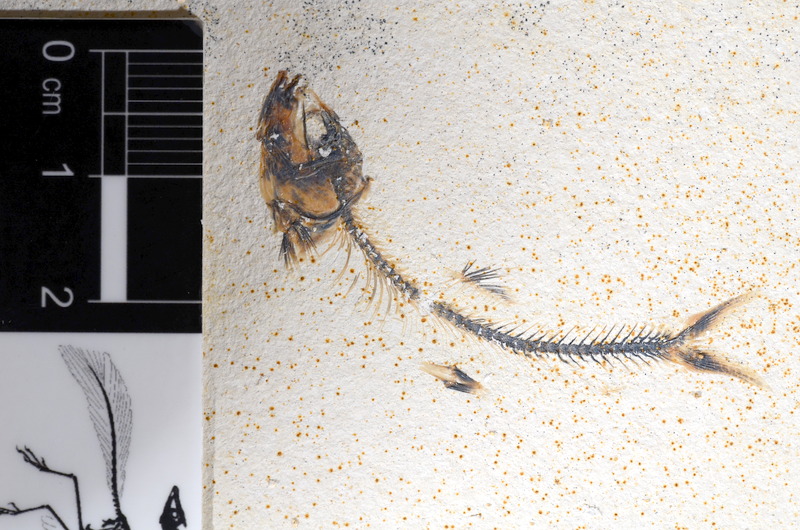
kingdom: Animalia
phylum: Chordata
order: Salmoniformes
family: Orthogonikleithridae
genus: Orthogonikleithrus
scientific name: Orthogonikleithrus hoelli
